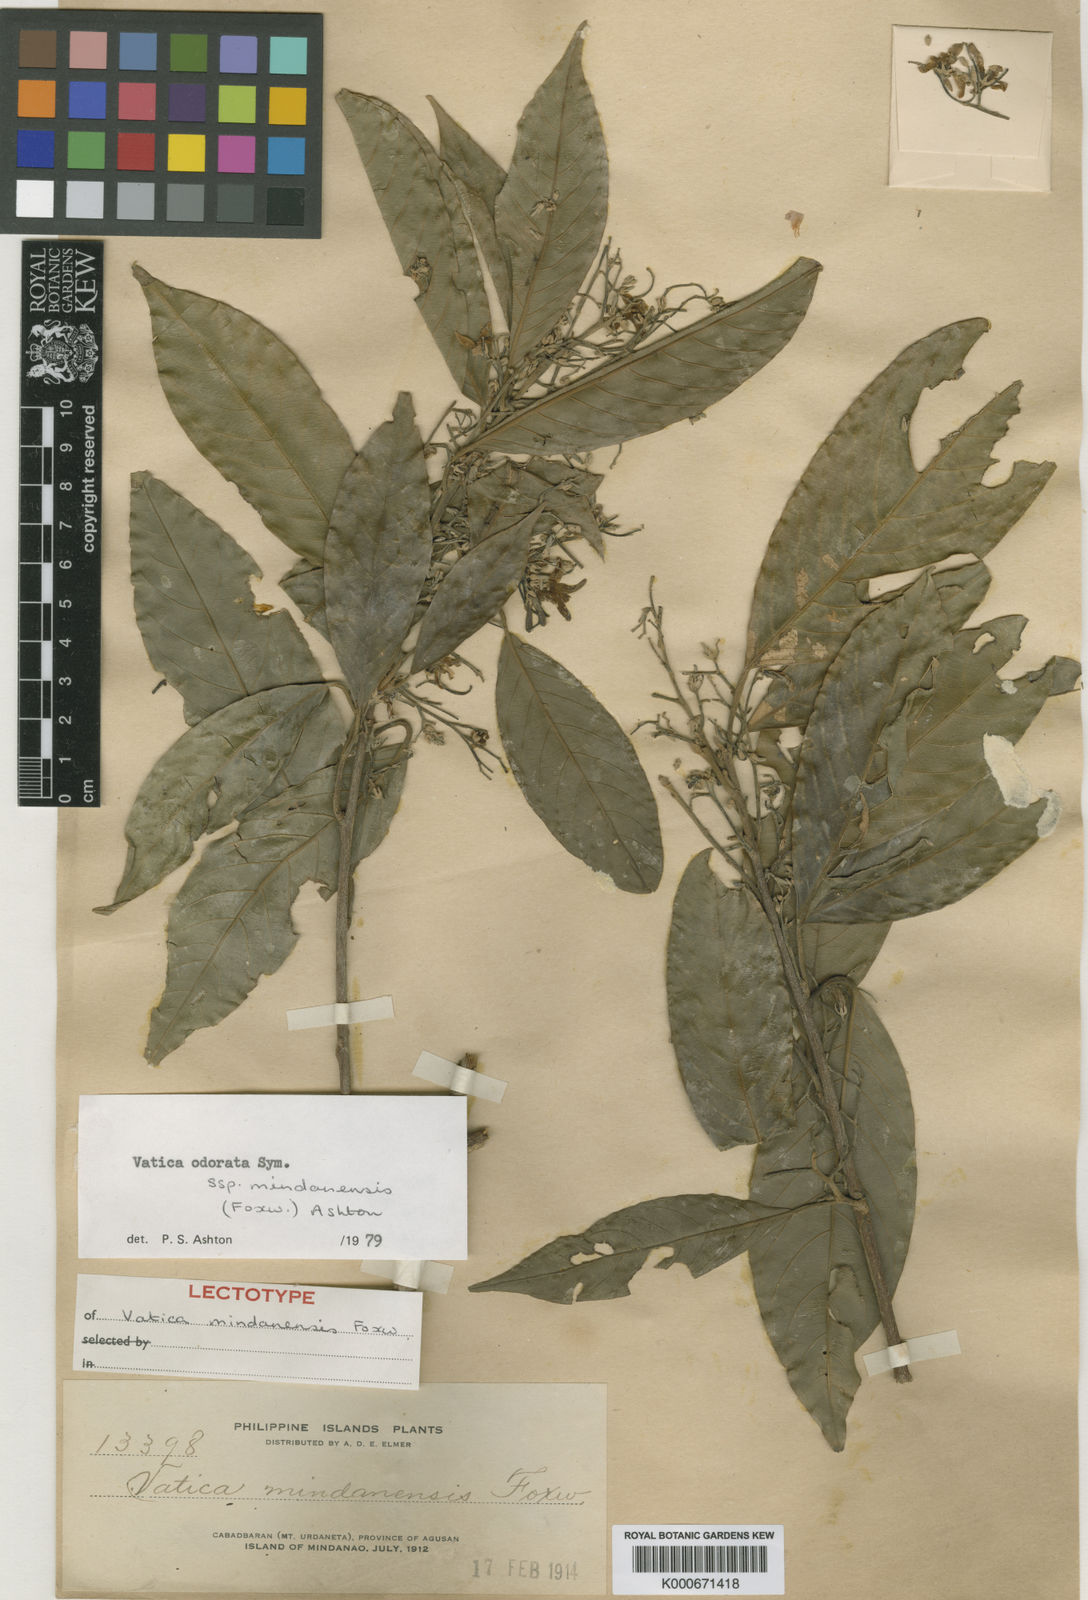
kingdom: Plantae
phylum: Tracheophyta
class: Magnoliopsida
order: Malvales
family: Dipterocarpaceae
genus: Vatica
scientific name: Vatica odorata
